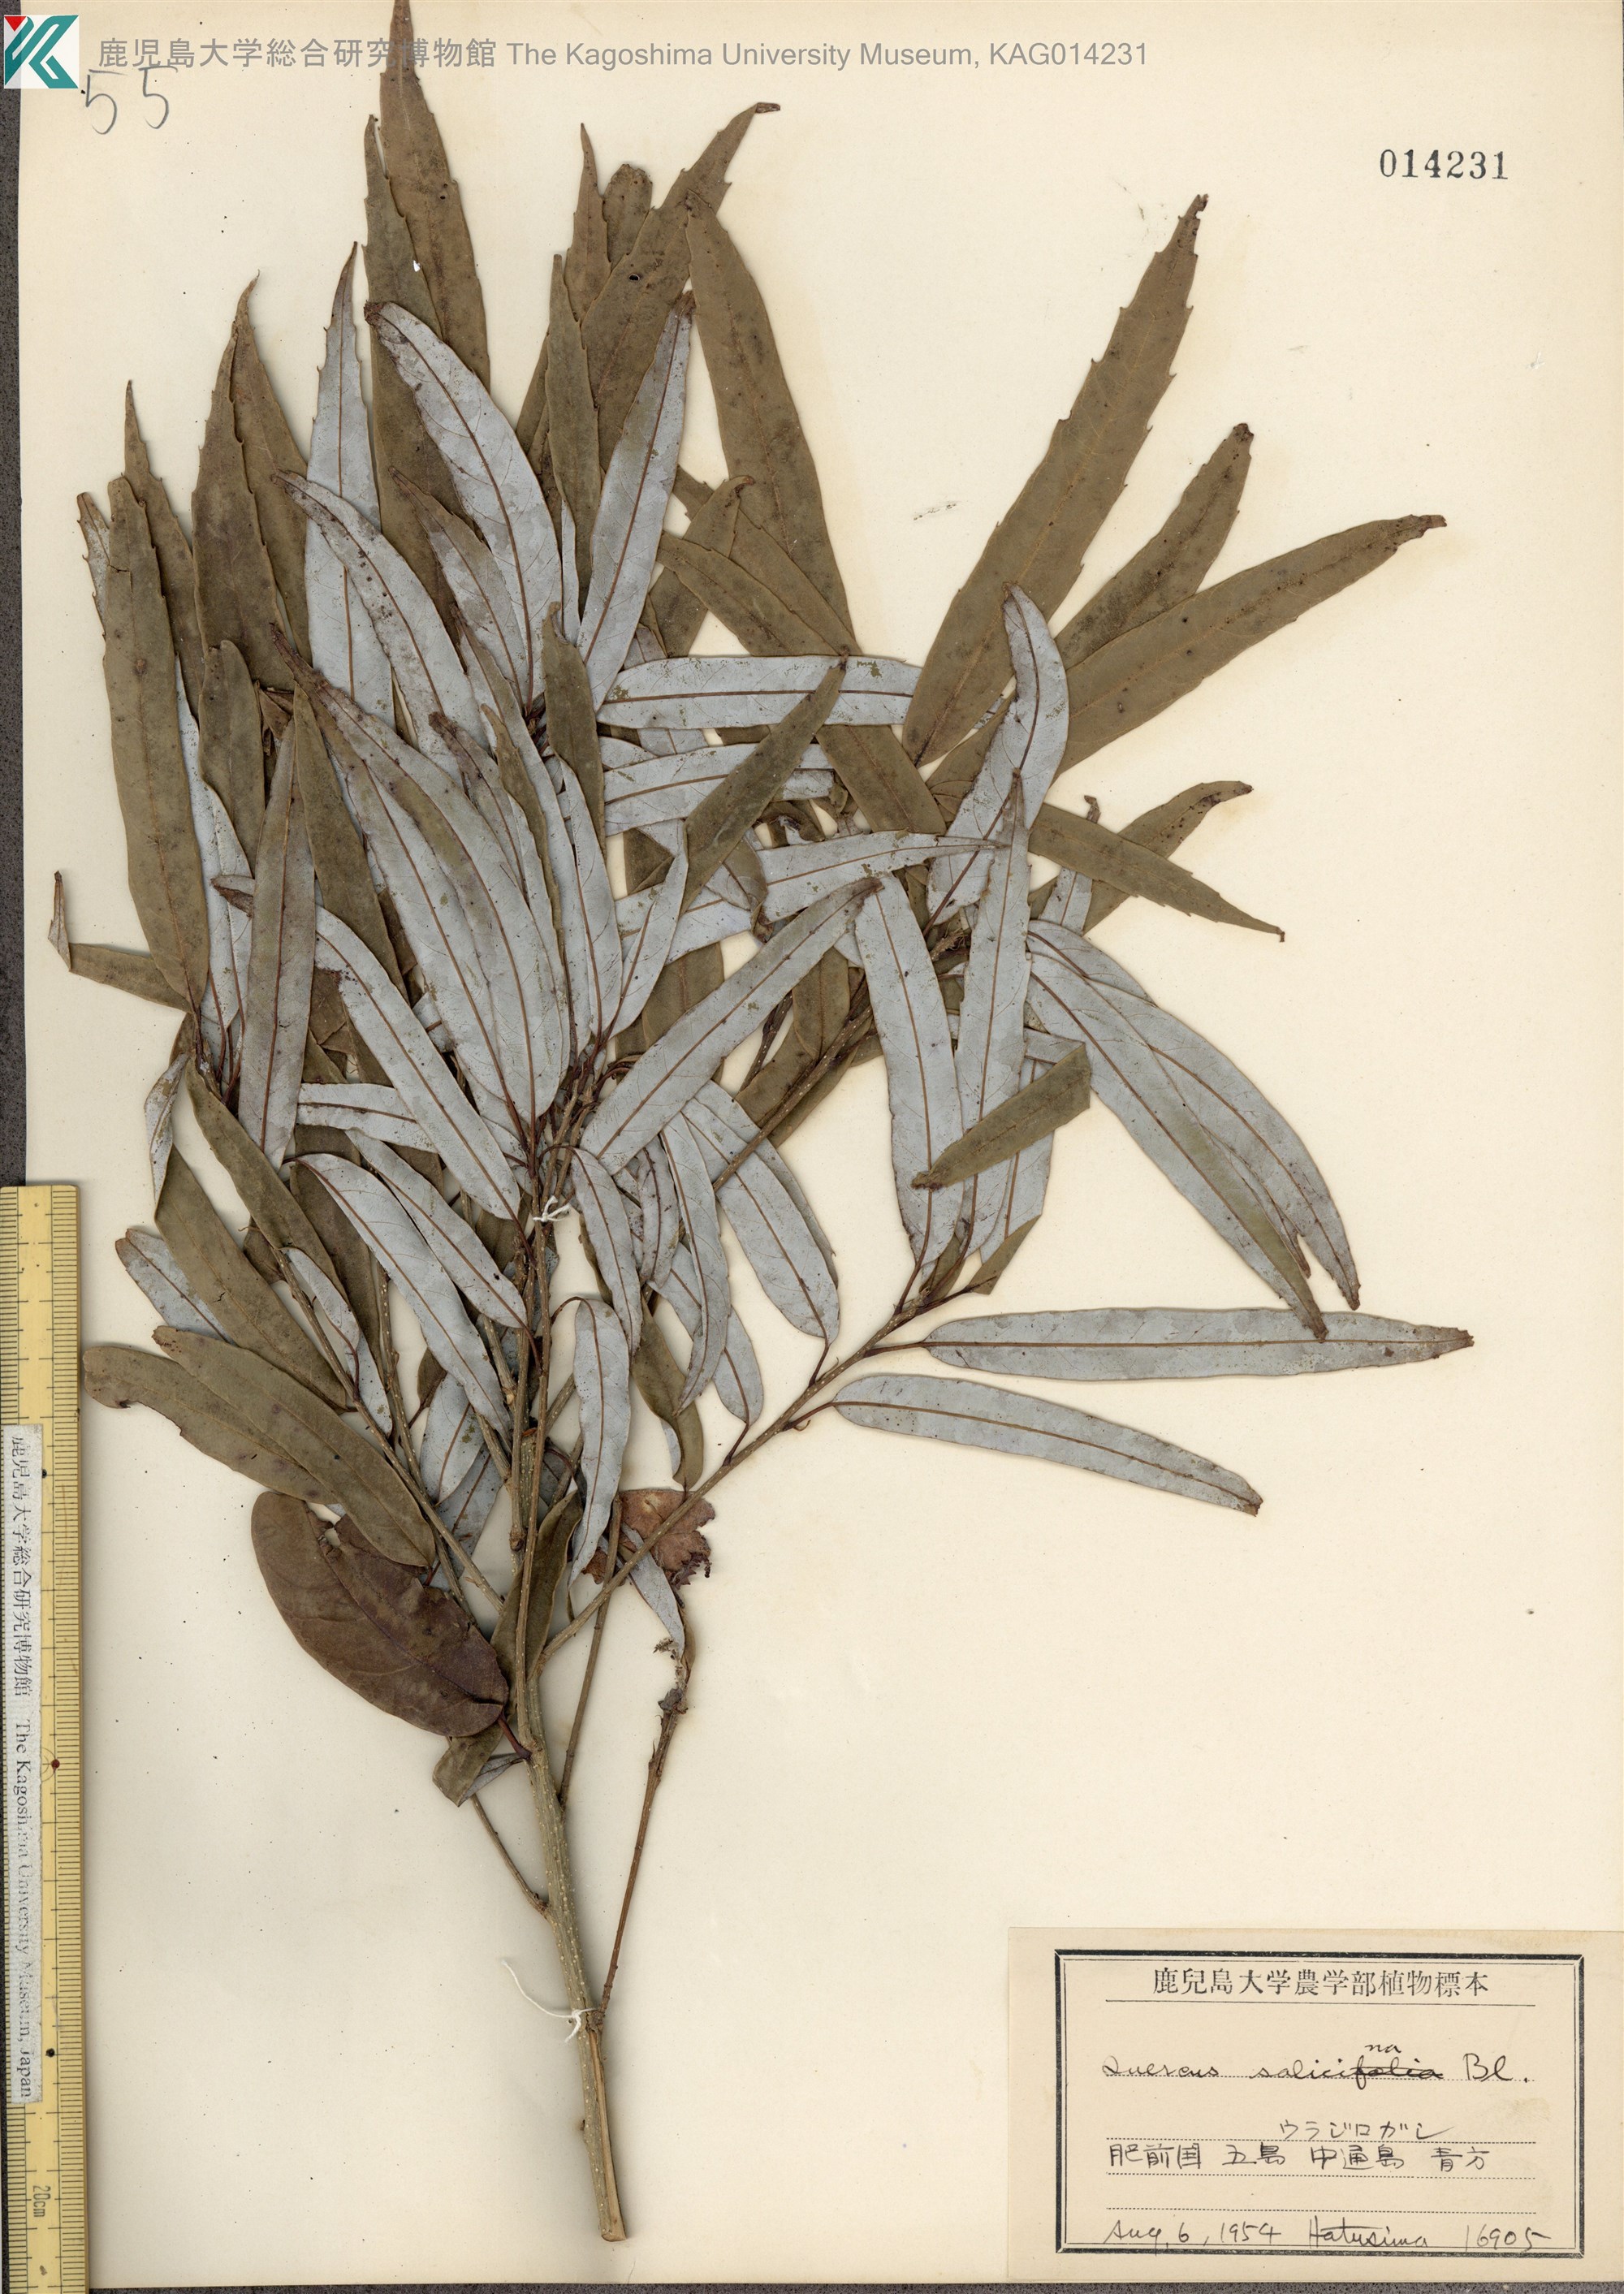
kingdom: Plantae
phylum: Tracheophyta
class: Magnoliopsida
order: Fagales
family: Fagaceae
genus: Quercus
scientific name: Quercus salicina
